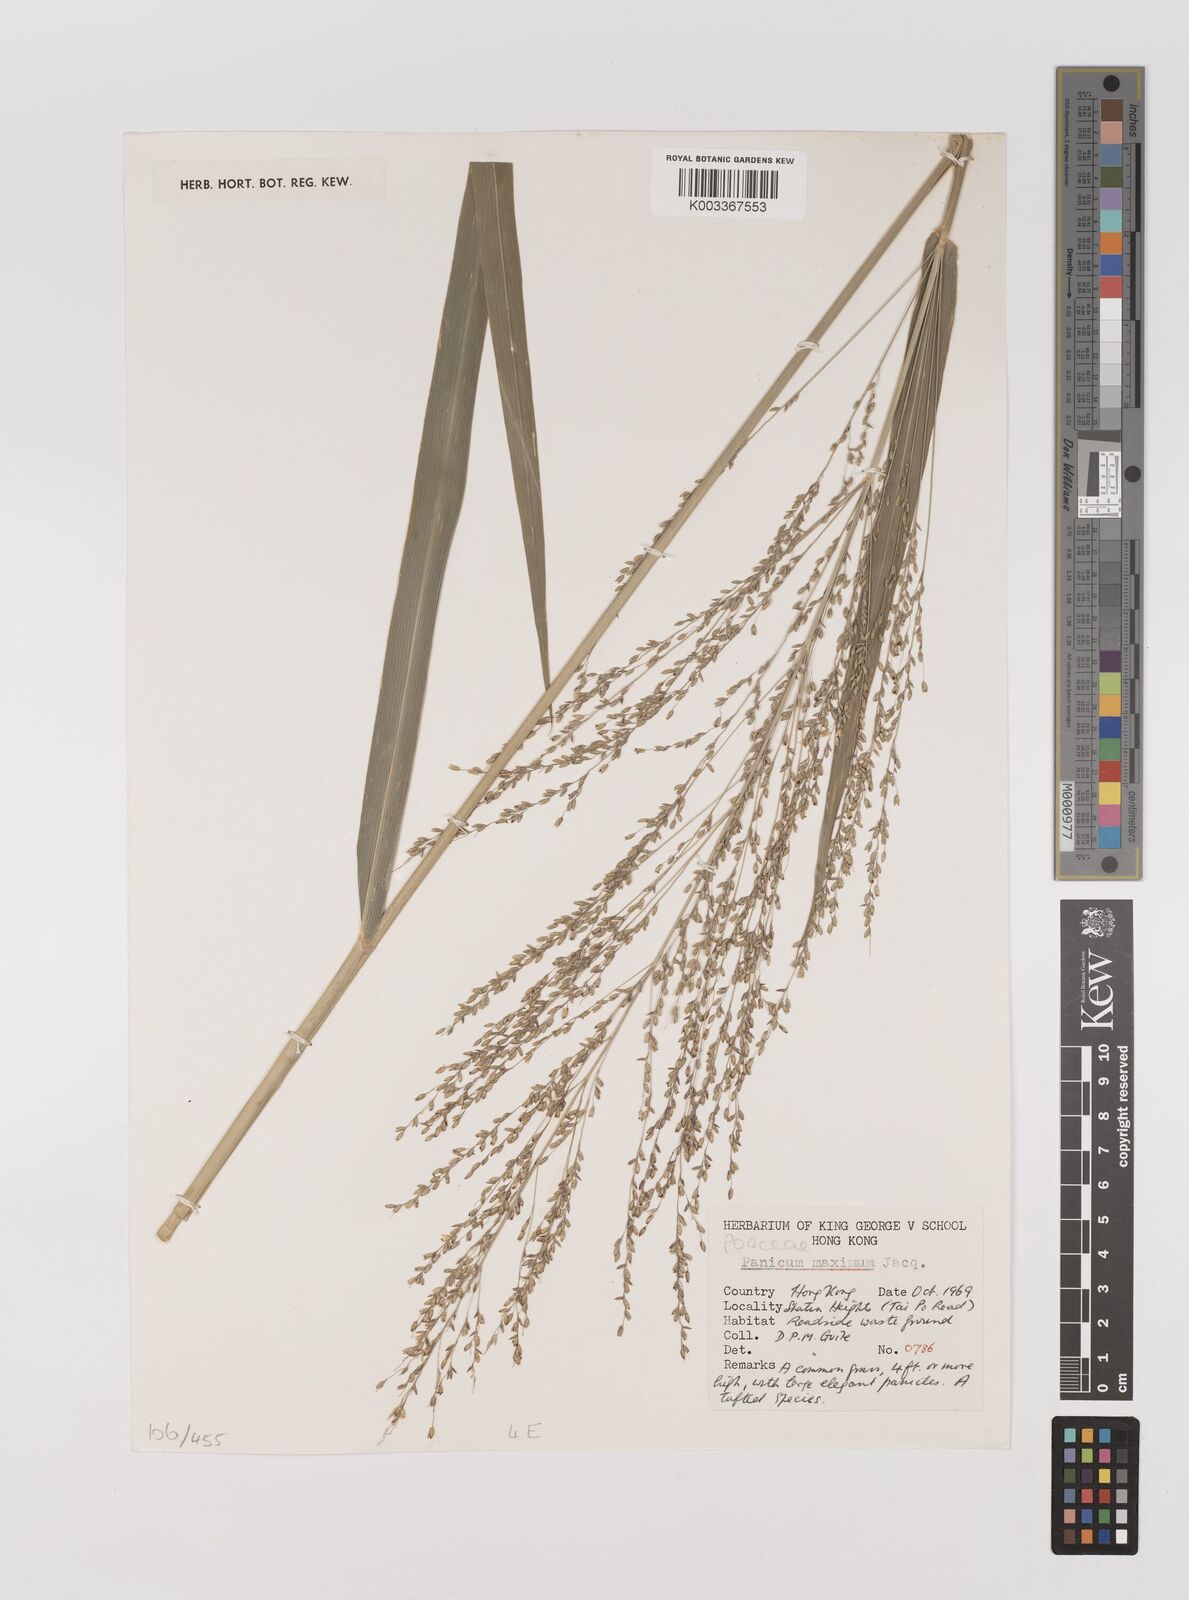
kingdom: Plantae
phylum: Tracheophyta
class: Liliopsida
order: Poales
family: Poaceae
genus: Megathyrsus
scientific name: Megathyrsus maximus
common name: Guineagrass
